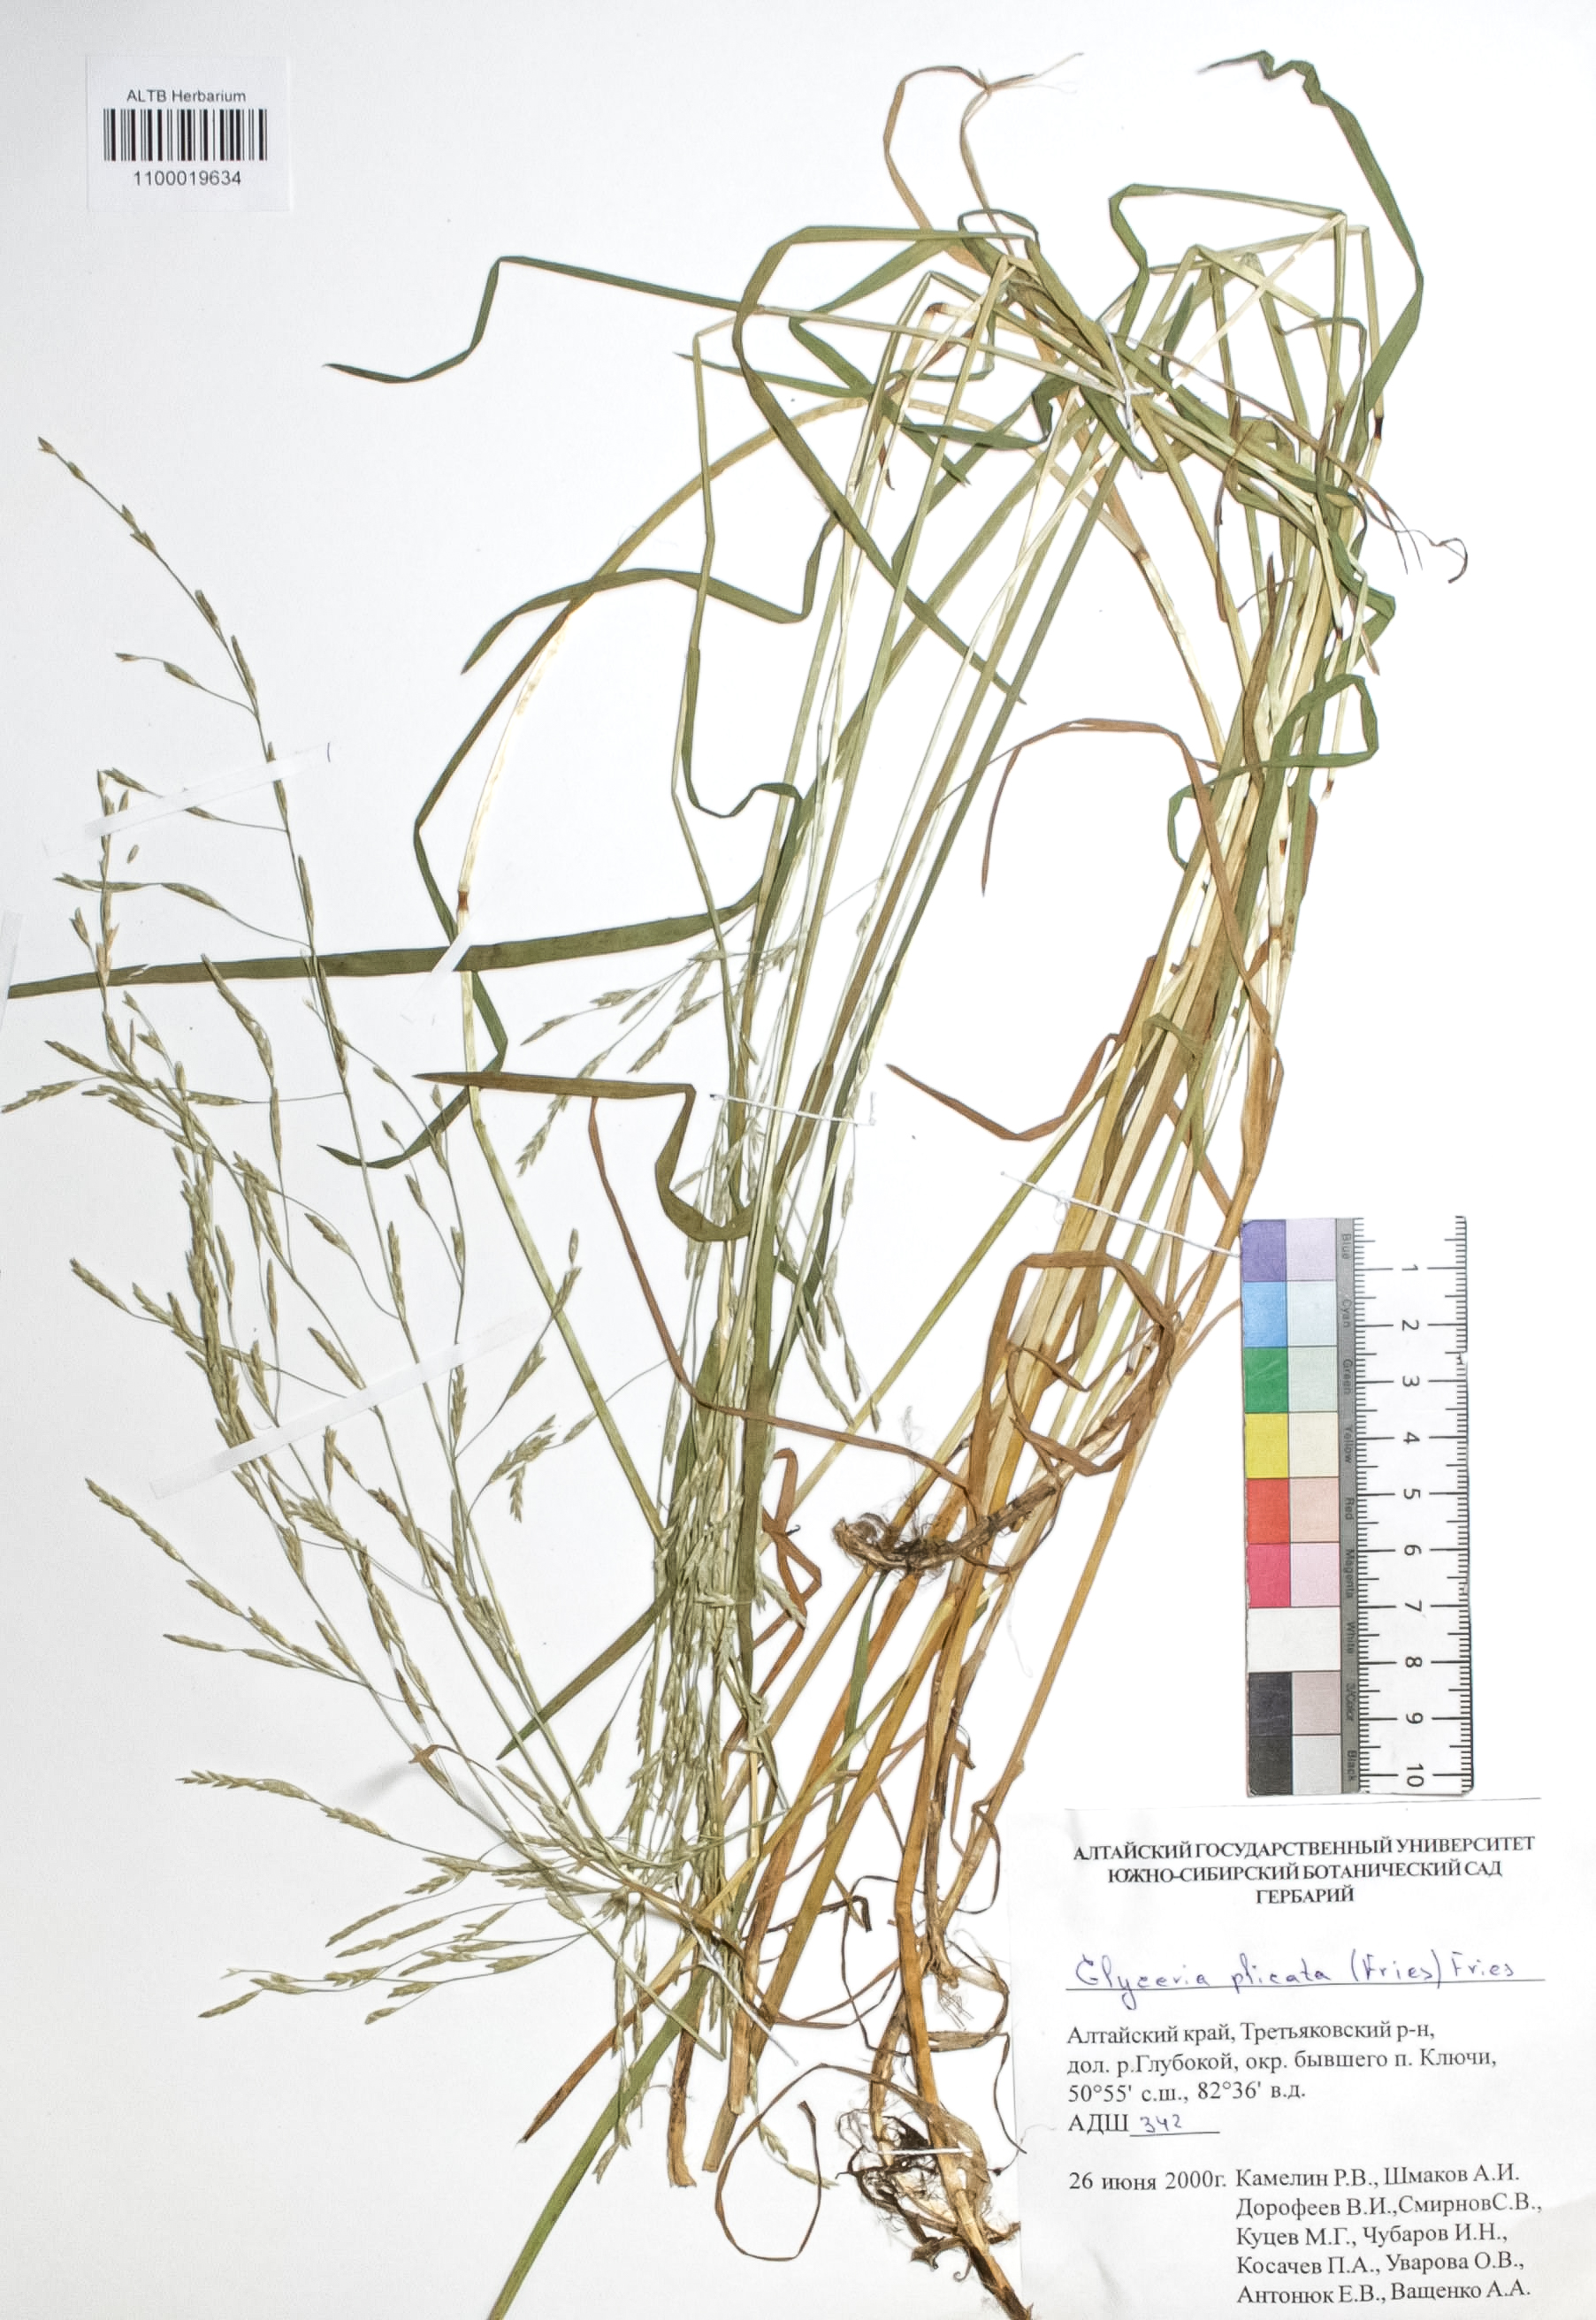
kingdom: Plantae
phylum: Tracheophyta
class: Liliopsida
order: Poales
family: Poaceae
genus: Glyceria
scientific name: Glyceria notata
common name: Plicate sweet-grass
